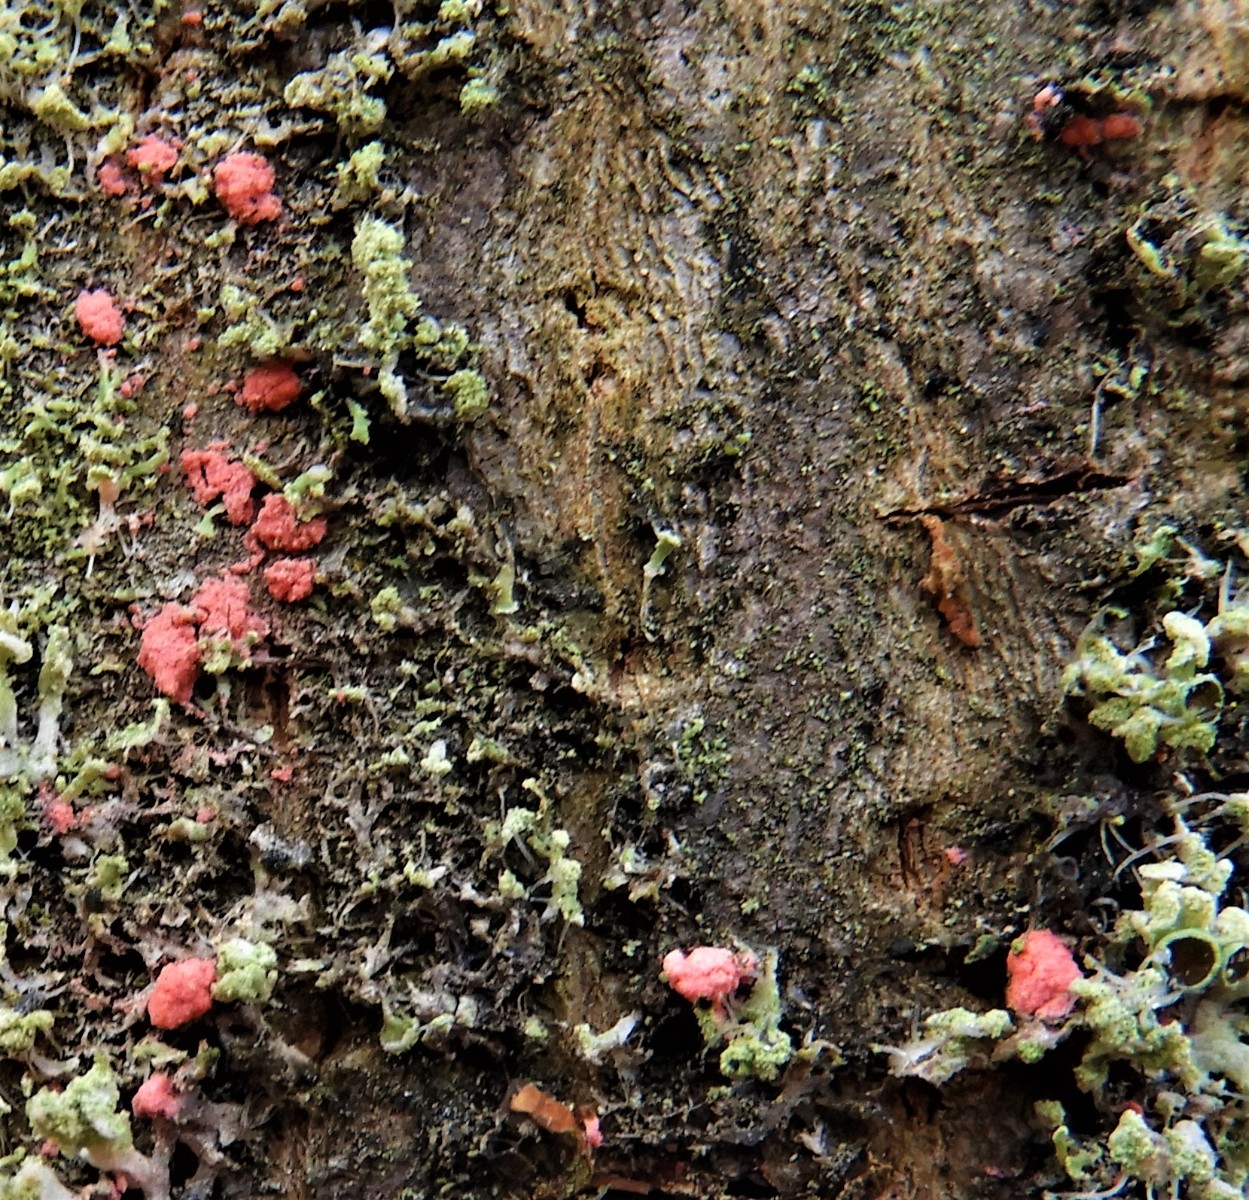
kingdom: Fungi
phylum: Ascomycota
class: Sordariomycetes
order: Hypocreales
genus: Illosporiopsis
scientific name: Illosporiopsis christiansenii
